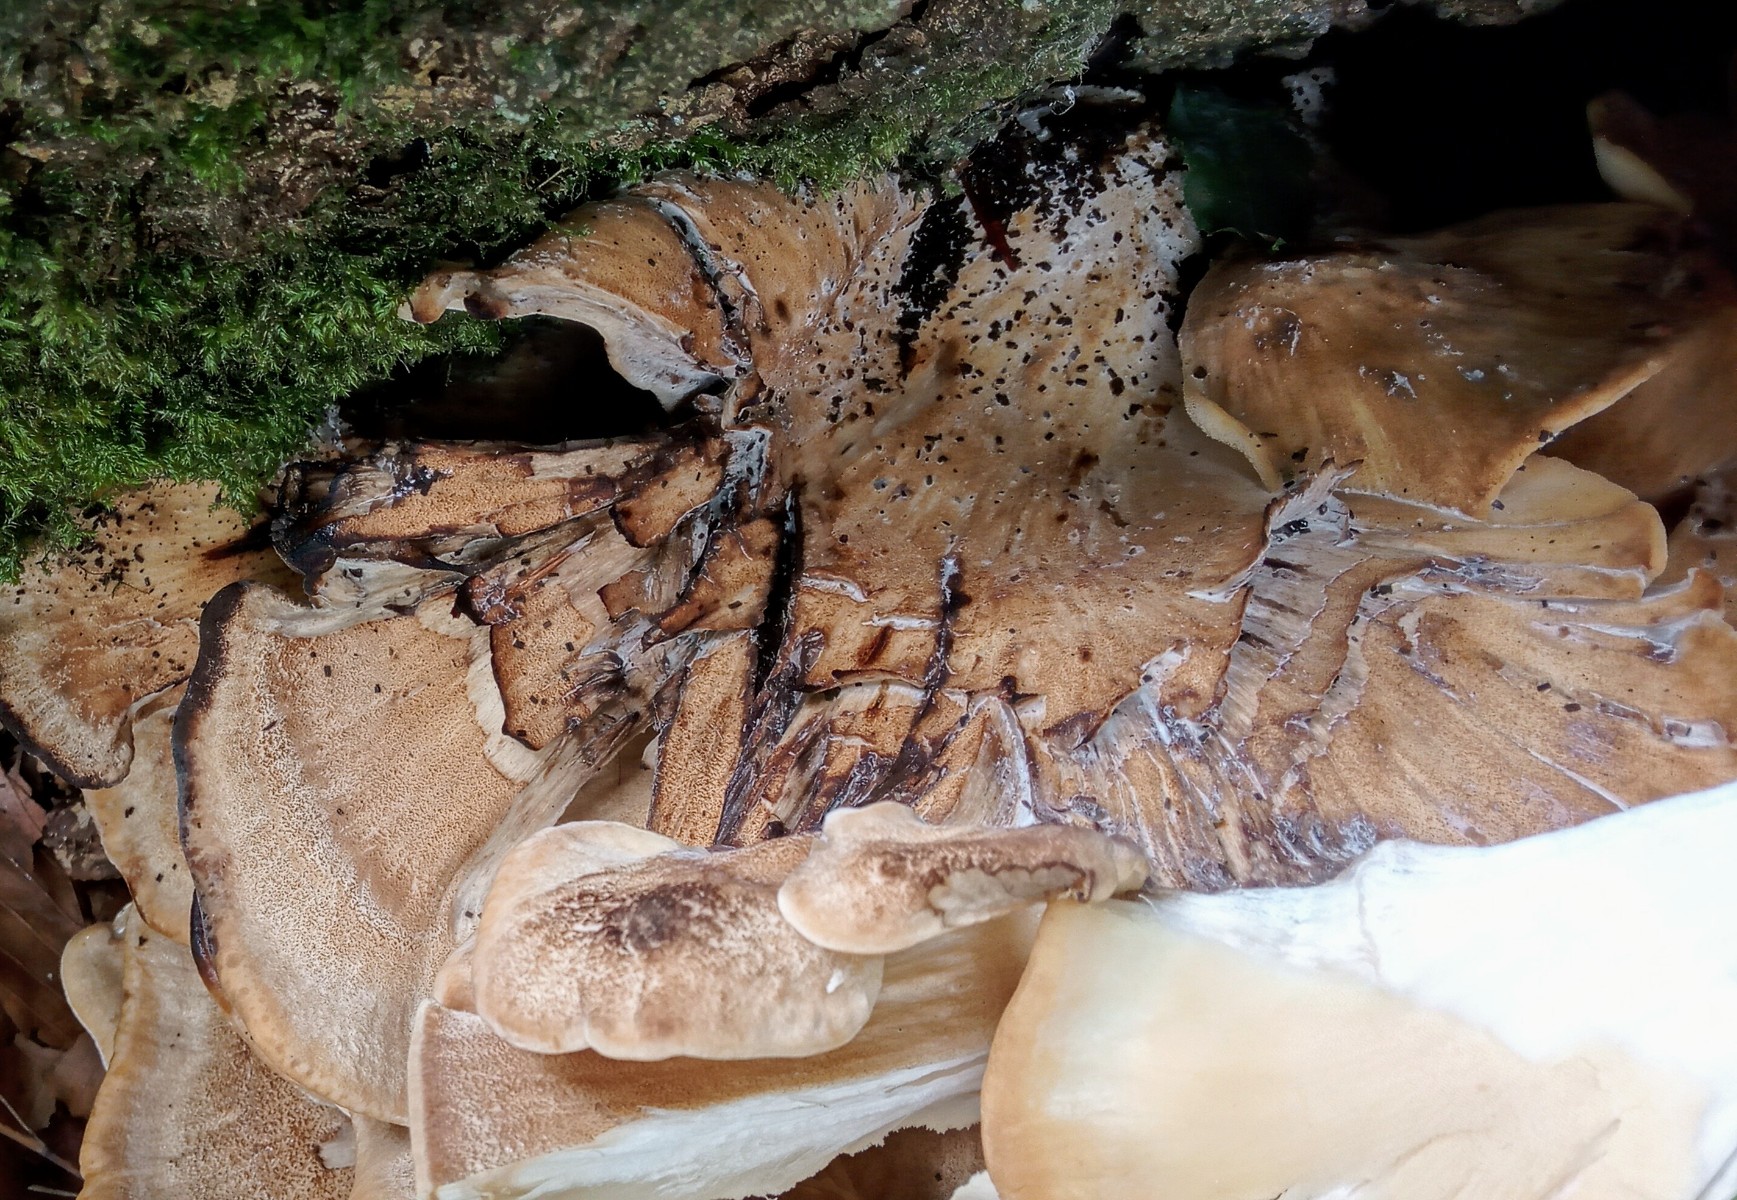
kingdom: Fungi
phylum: Basidiomycota
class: Agaricomycetes
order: Polyporales
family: Meripilaceae
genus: Meripilus
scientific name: Meripilus giganteus
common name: kæmpeporesvamp
